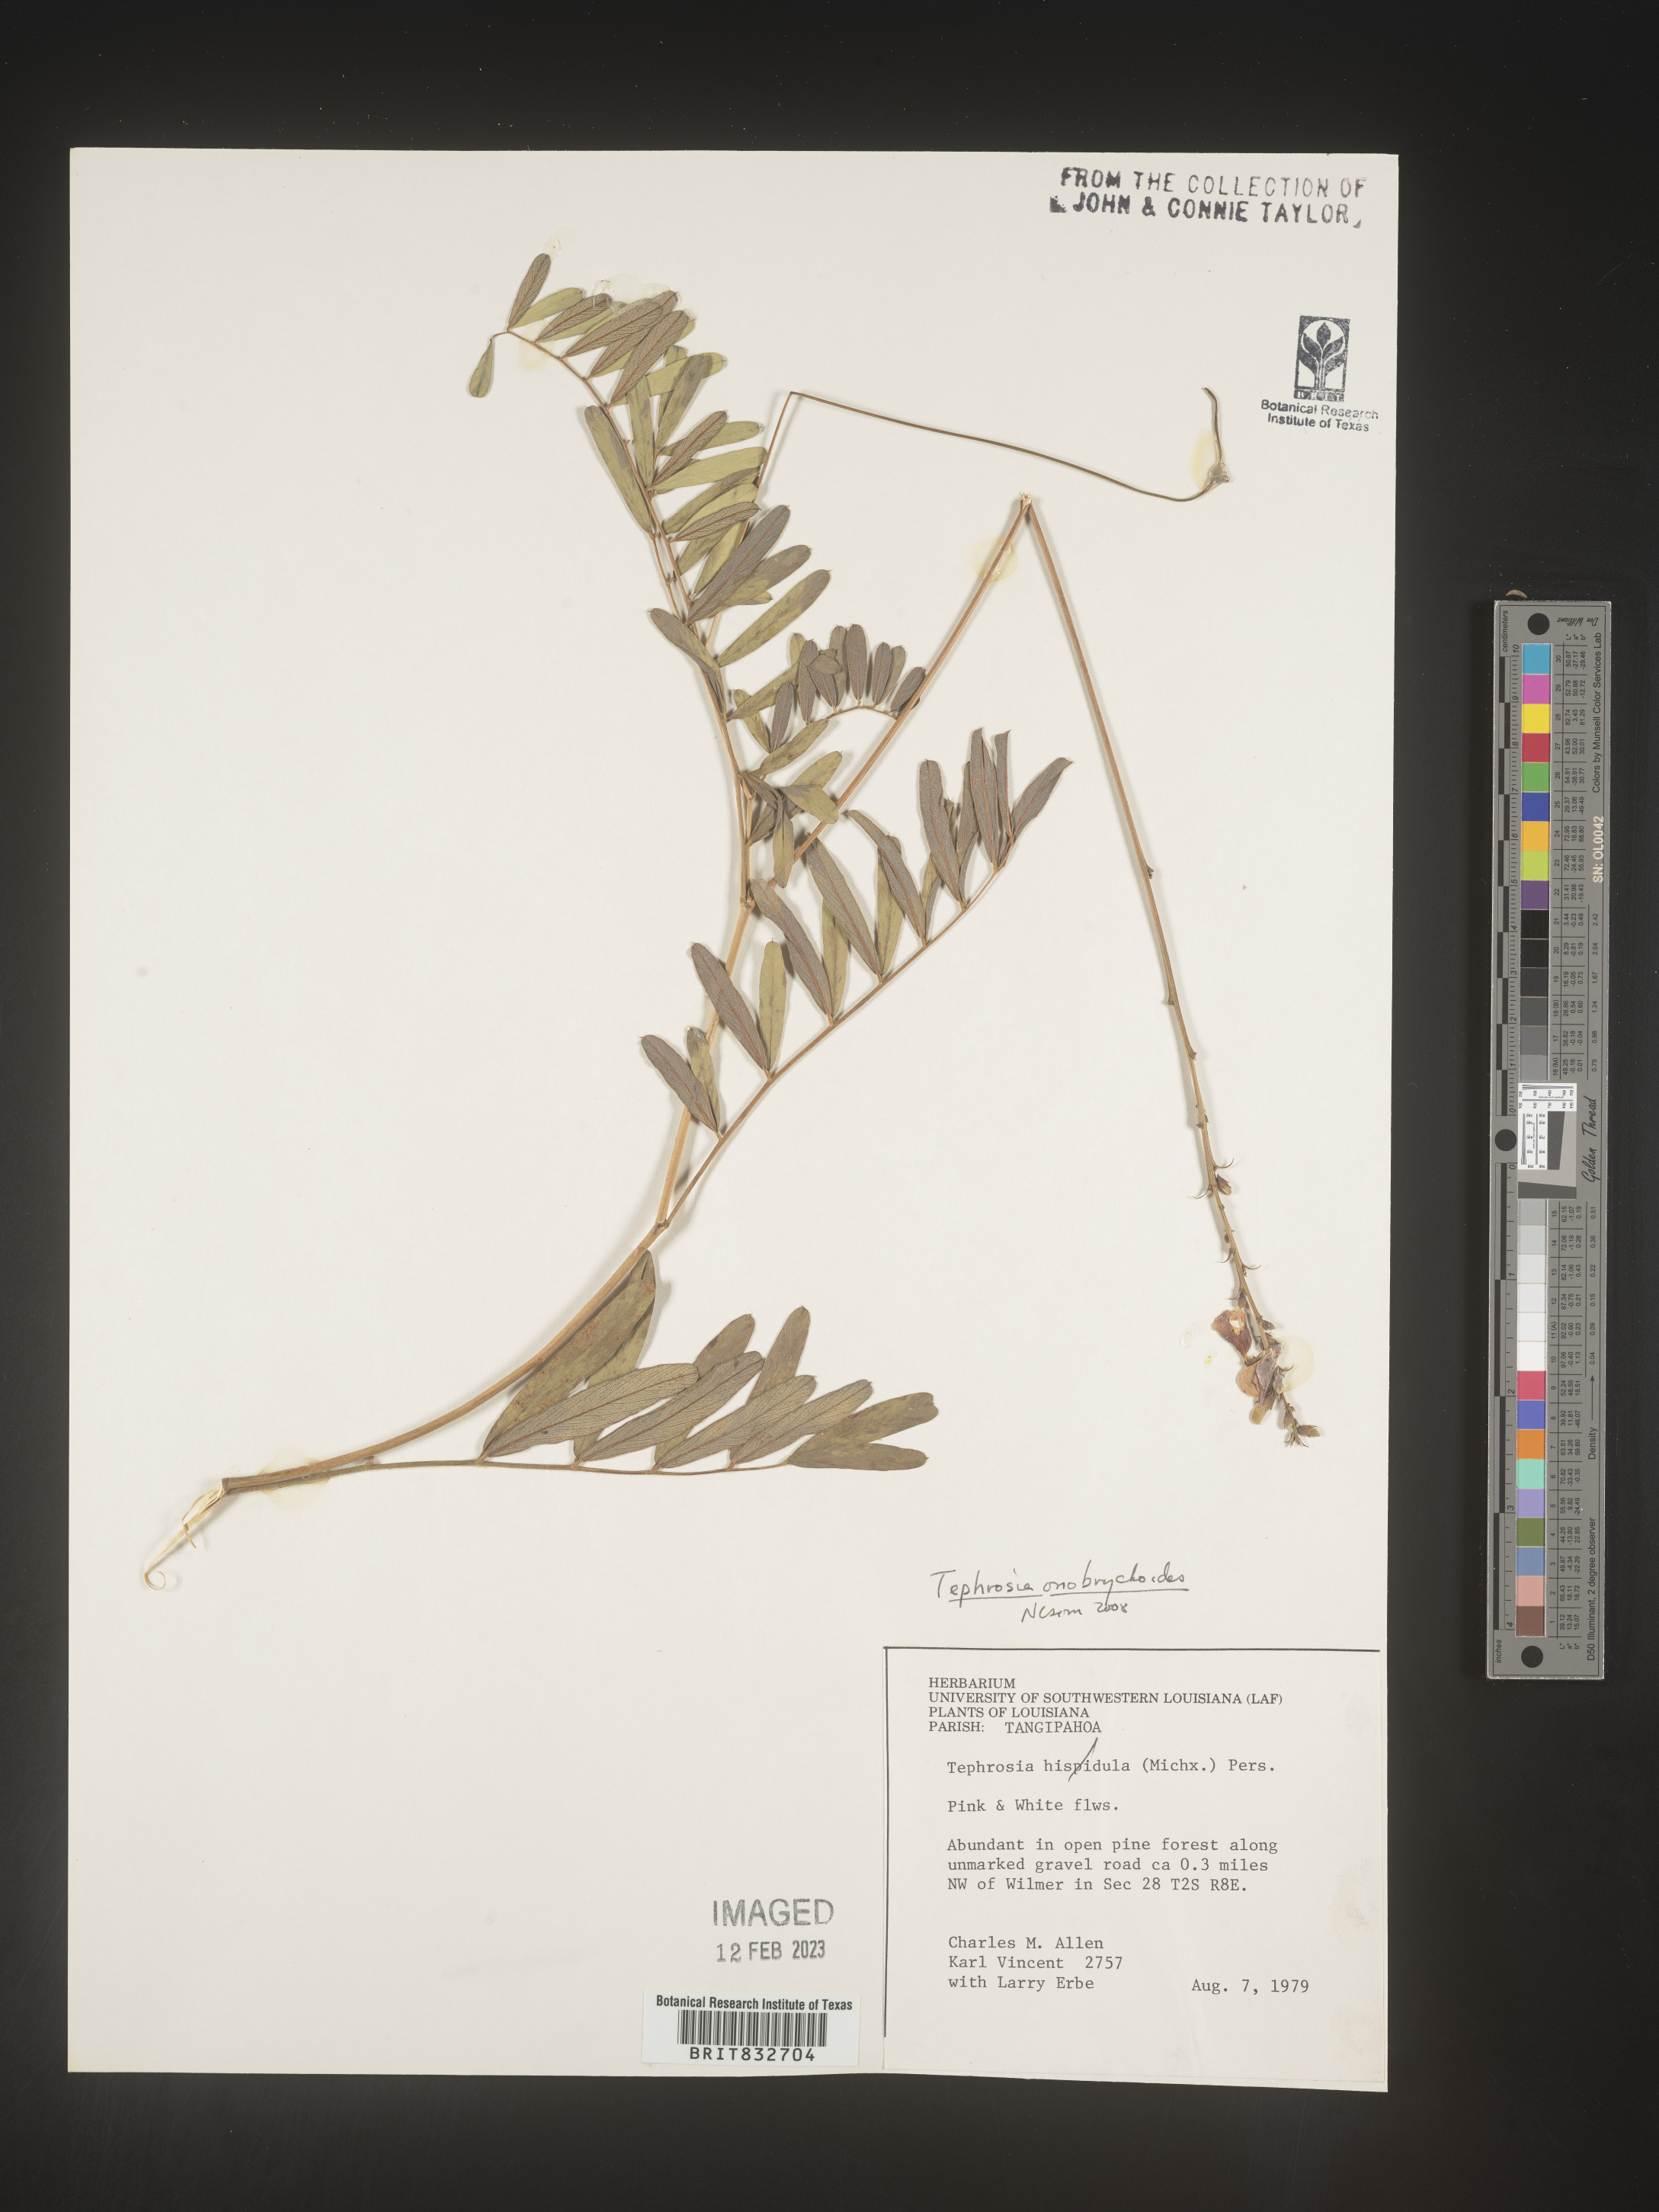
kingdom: Plantae
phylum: Tracheophyta
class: Magnoliopsida
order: Fabales
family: Fabaceae
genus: Tephrosia
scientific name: Tephrosia onobrychoides
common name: Multi-bloom hoary-pea
